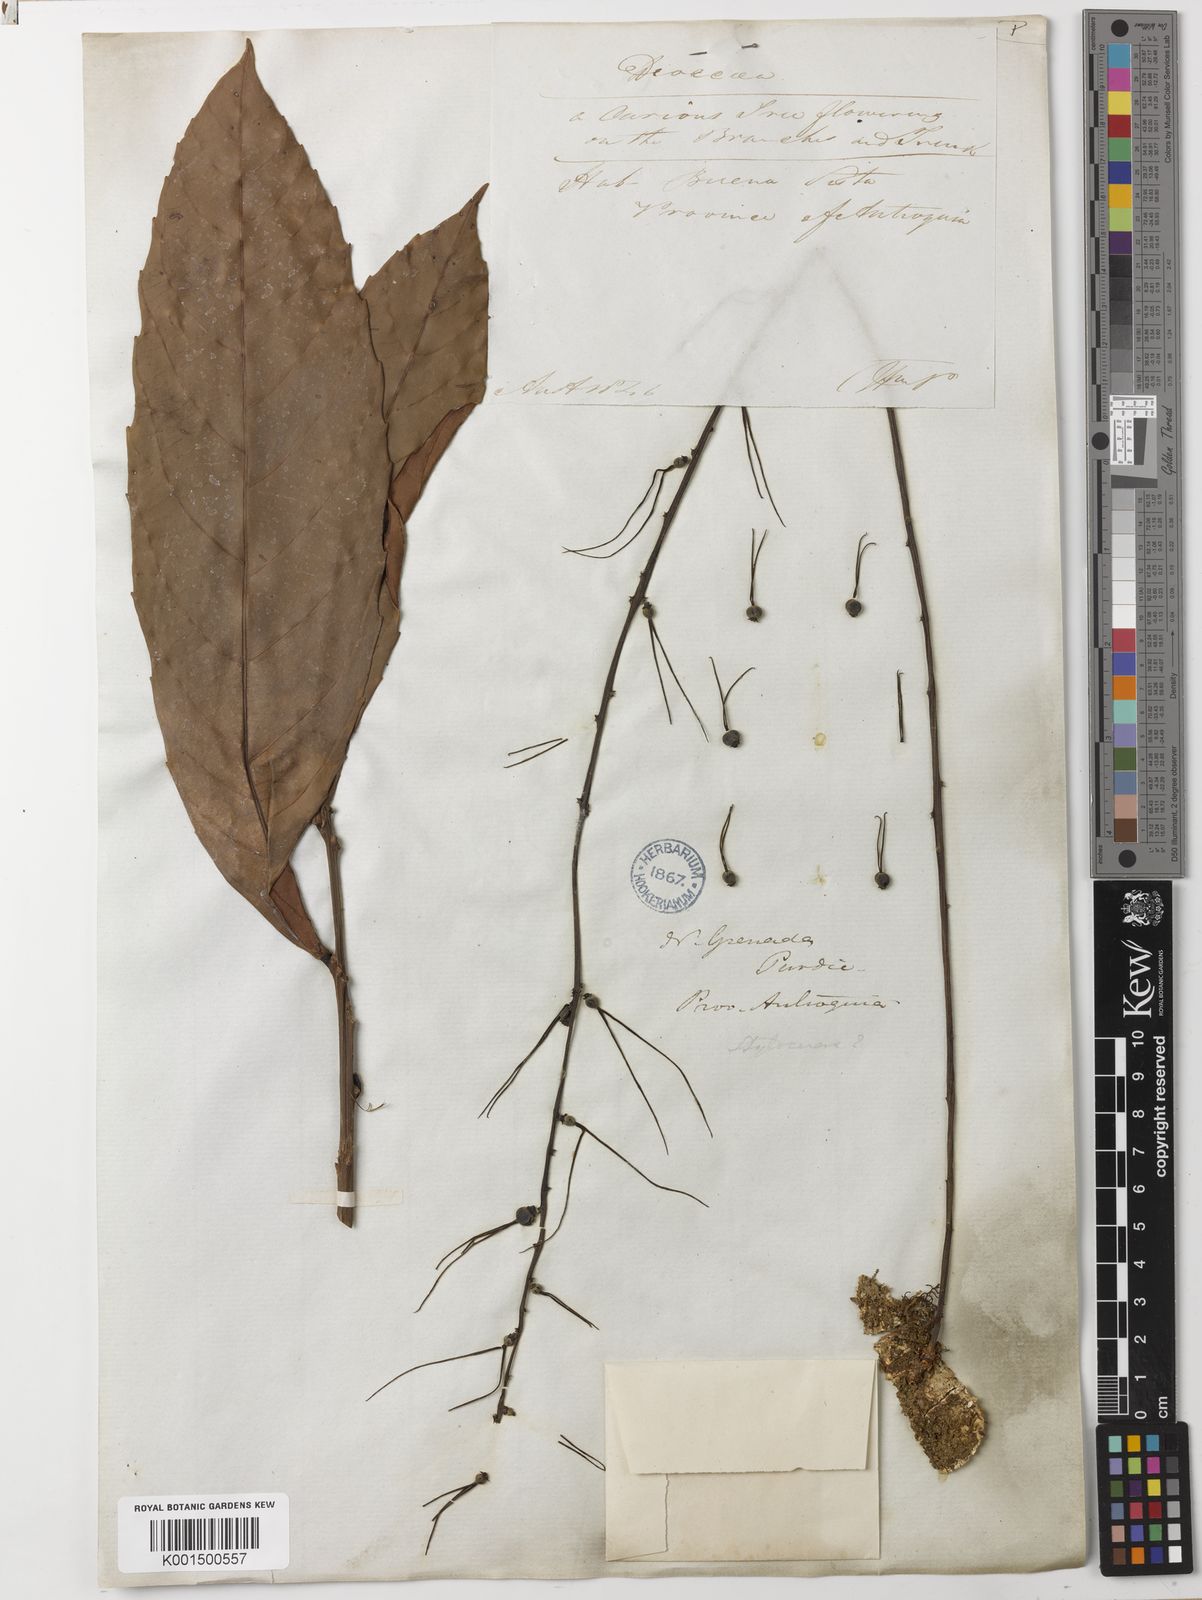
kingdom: Plantae
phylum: Tracheophyta
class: Magnoliopsida
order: Malpighiales
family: Euphorbiaceae
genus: Alchornea
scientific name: Alchornea megalophylla
